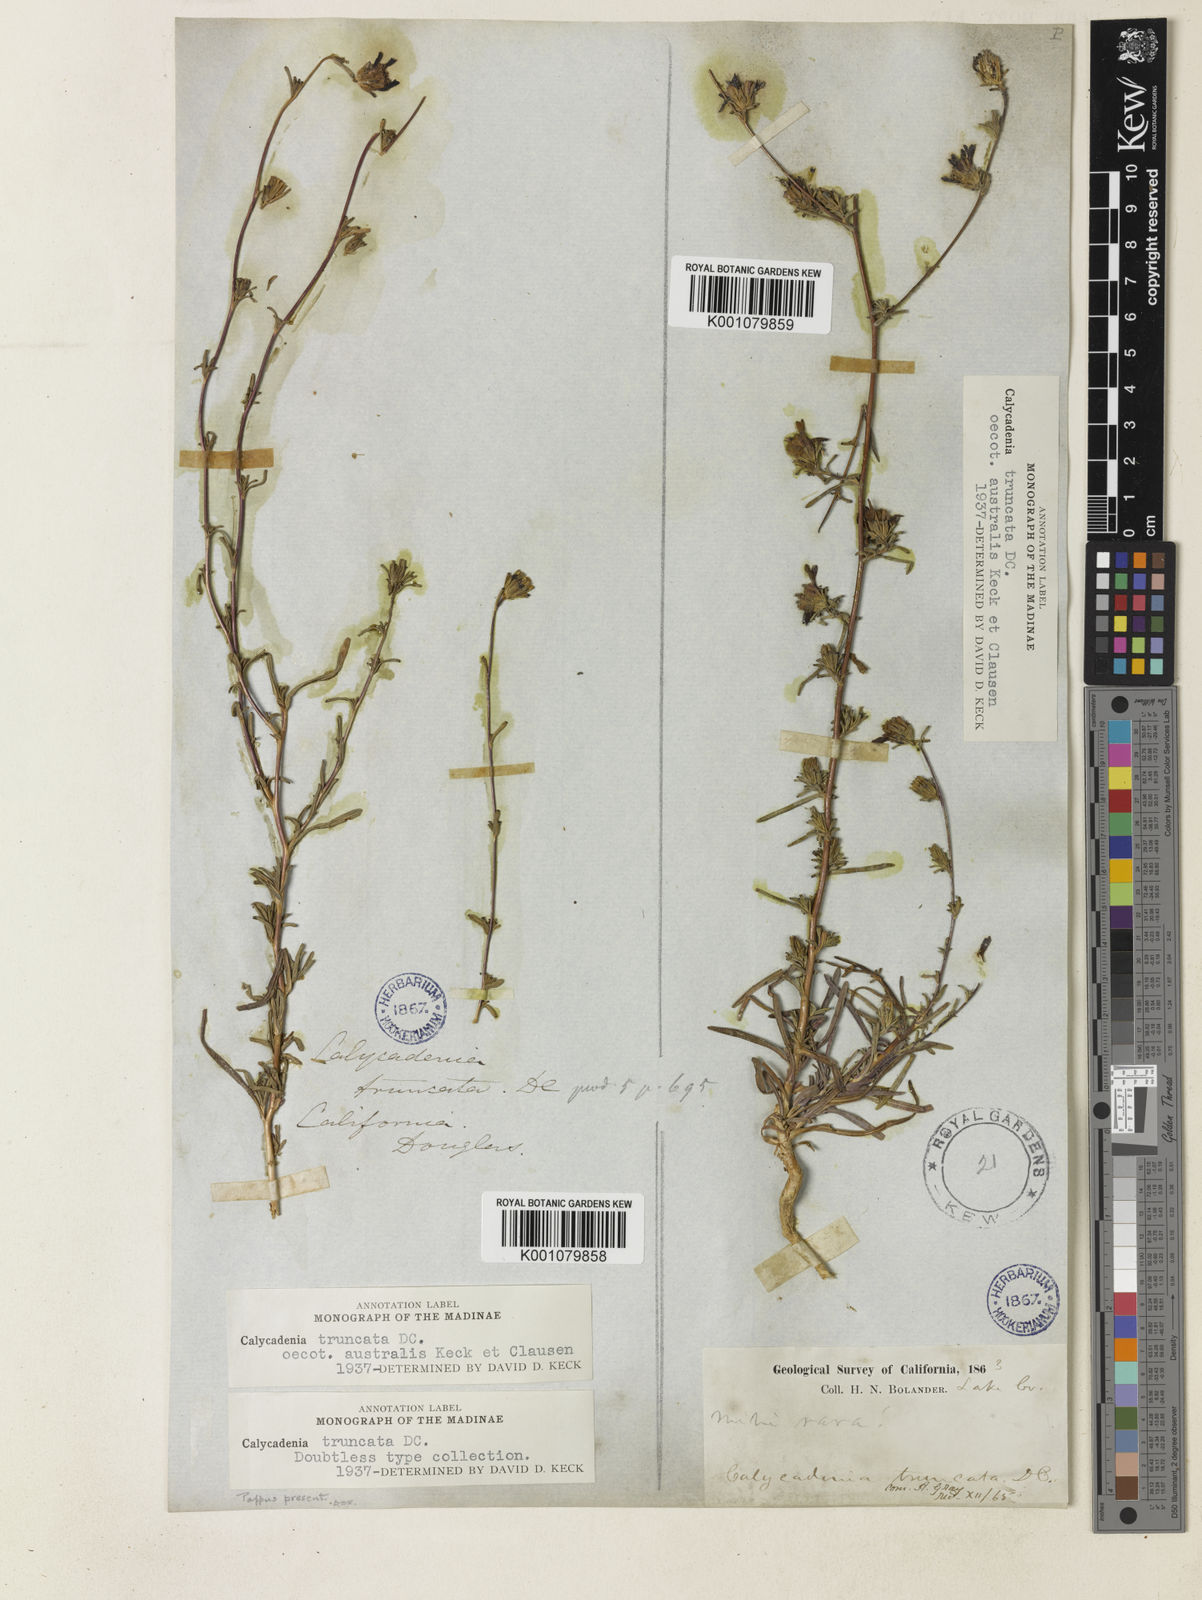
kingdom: Plantae
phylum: Tracheophyta
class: Magnoliopsida
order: Asterales
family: Asteraceae
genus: Calycadenia
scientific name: Calycadenia truncata
